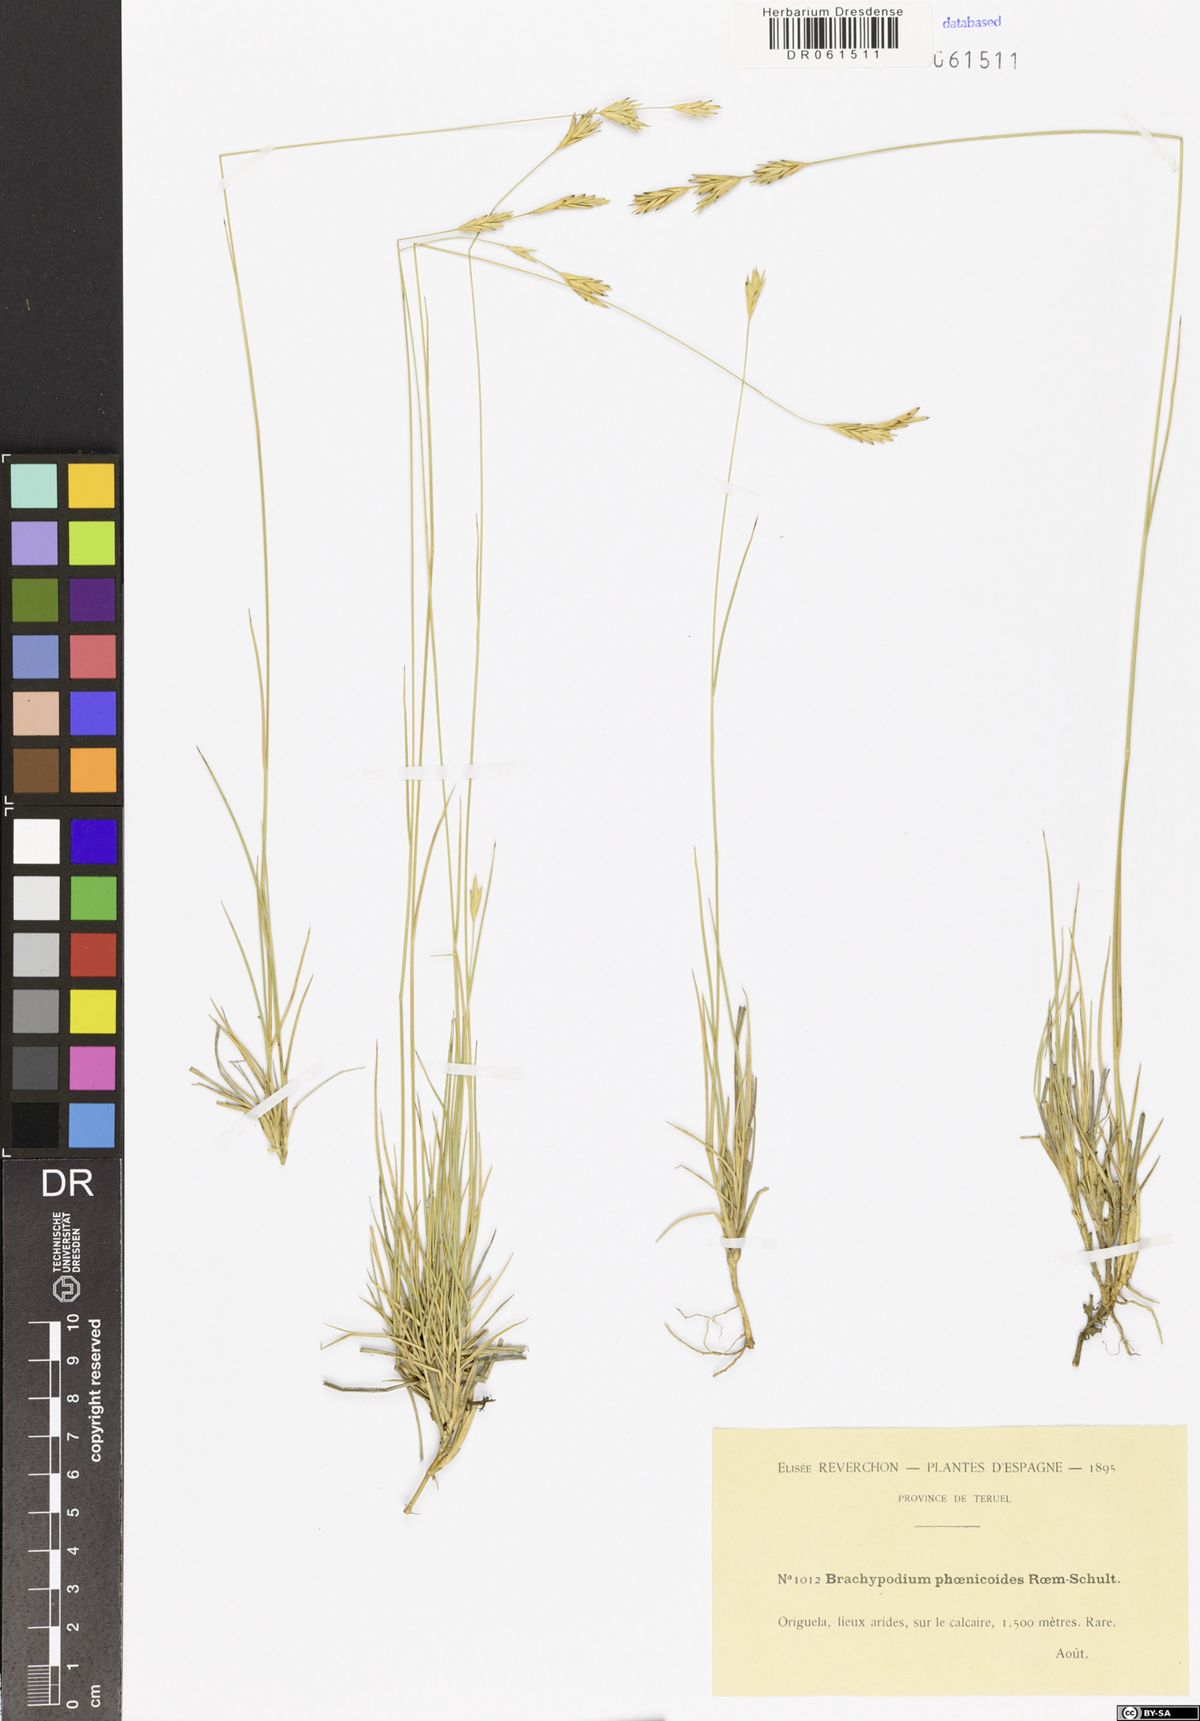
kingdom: Plantae
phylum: Tracheophyta
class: Liliopsida
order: Poales
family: Poaceae
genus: Brachypodium
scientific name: Brachypodium phoenicoides
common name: Thinleaf false brome
